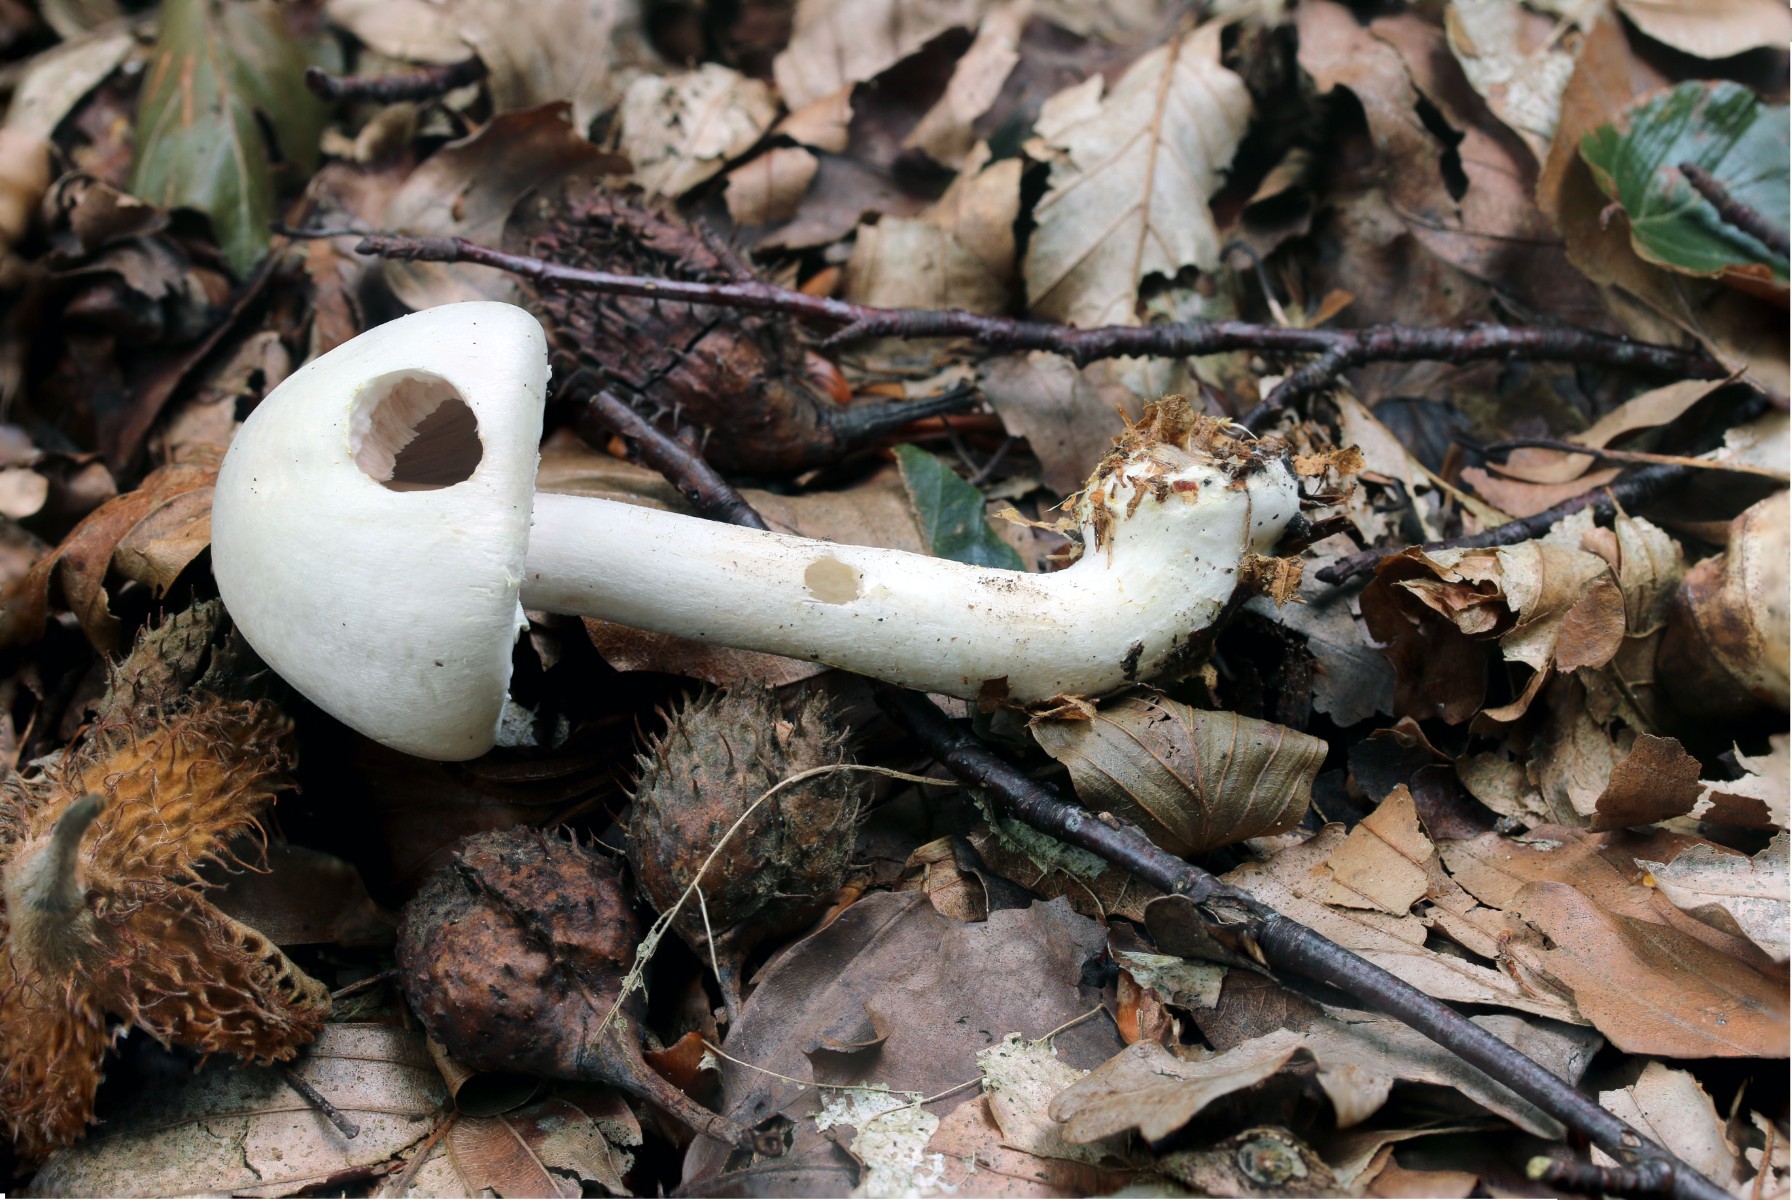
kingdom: Fungi
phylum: Basidiomycota
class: Agaricomycetes
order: Agaricales
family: Agaricaceae
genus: Agaricus
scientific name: Agaricus sylvicola
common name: skiveknoldet champignon
